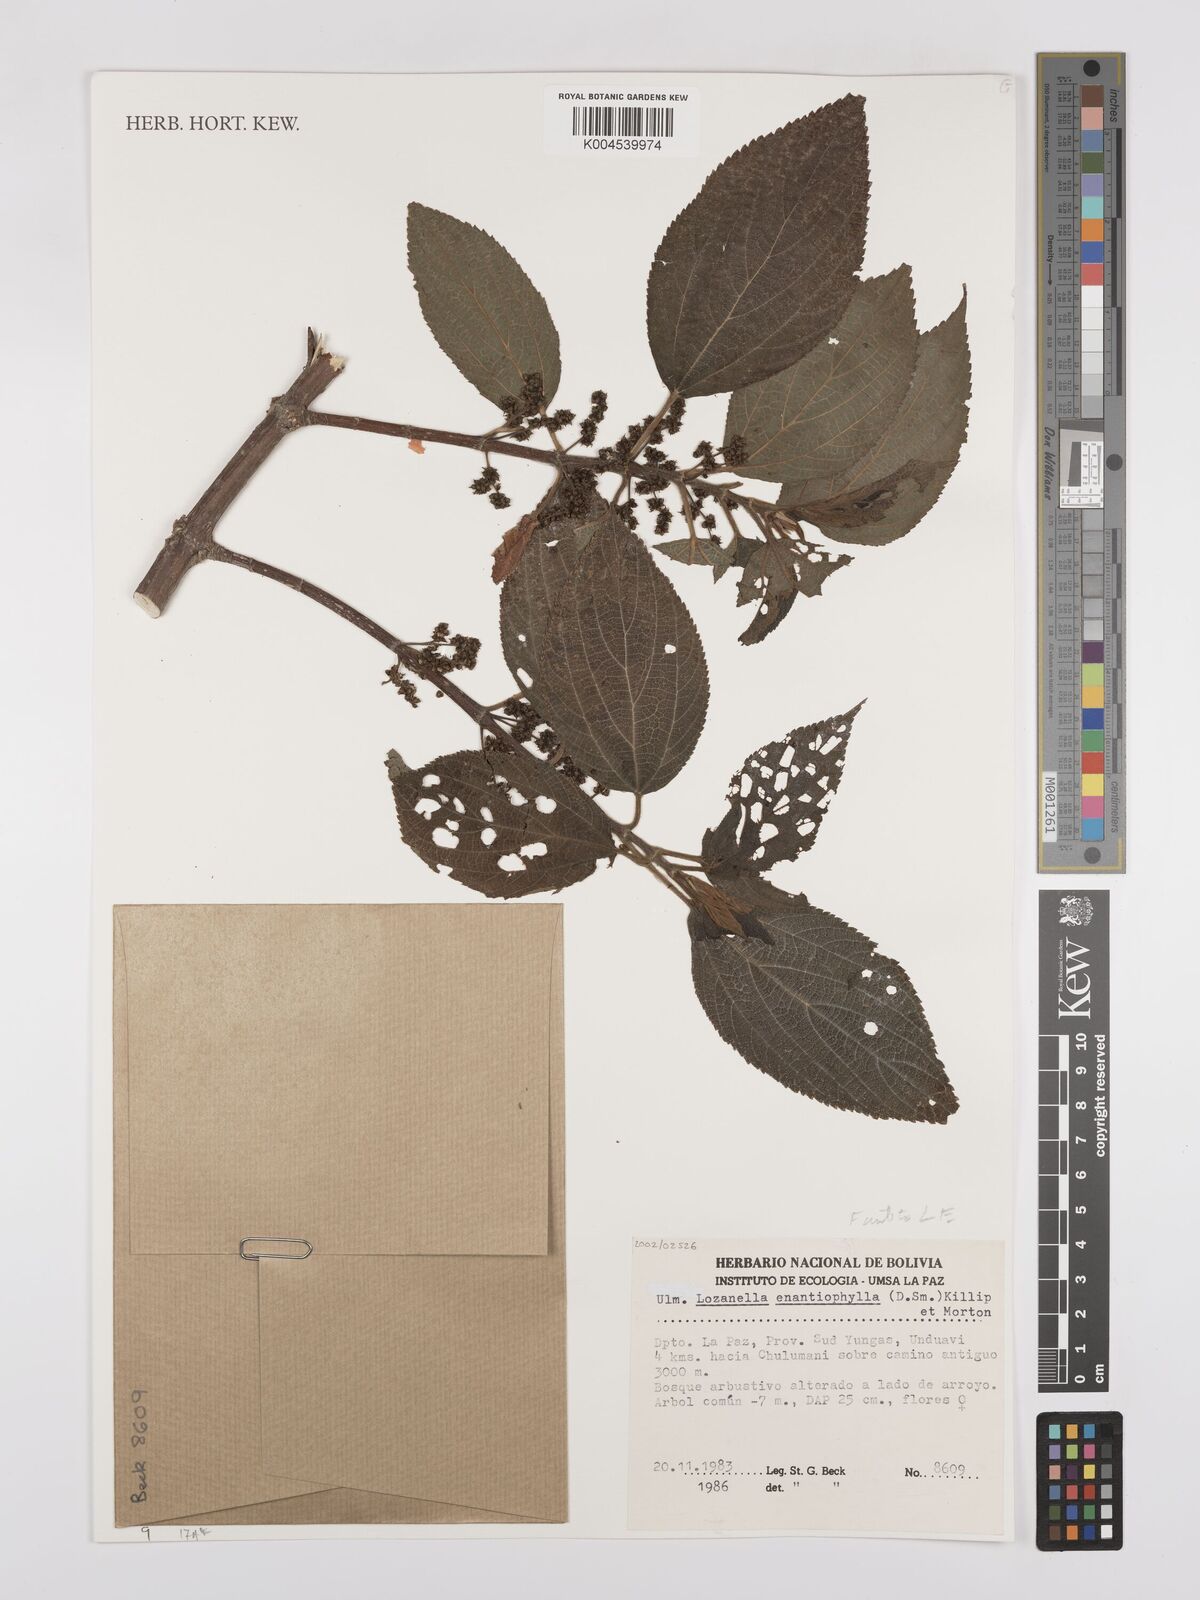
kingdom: Plantae
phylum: Tracheophyta
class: Magnoliopsida
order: Rosales
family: Cannabaceae
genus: Lozanella
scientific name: Lozanella enantiophylla
